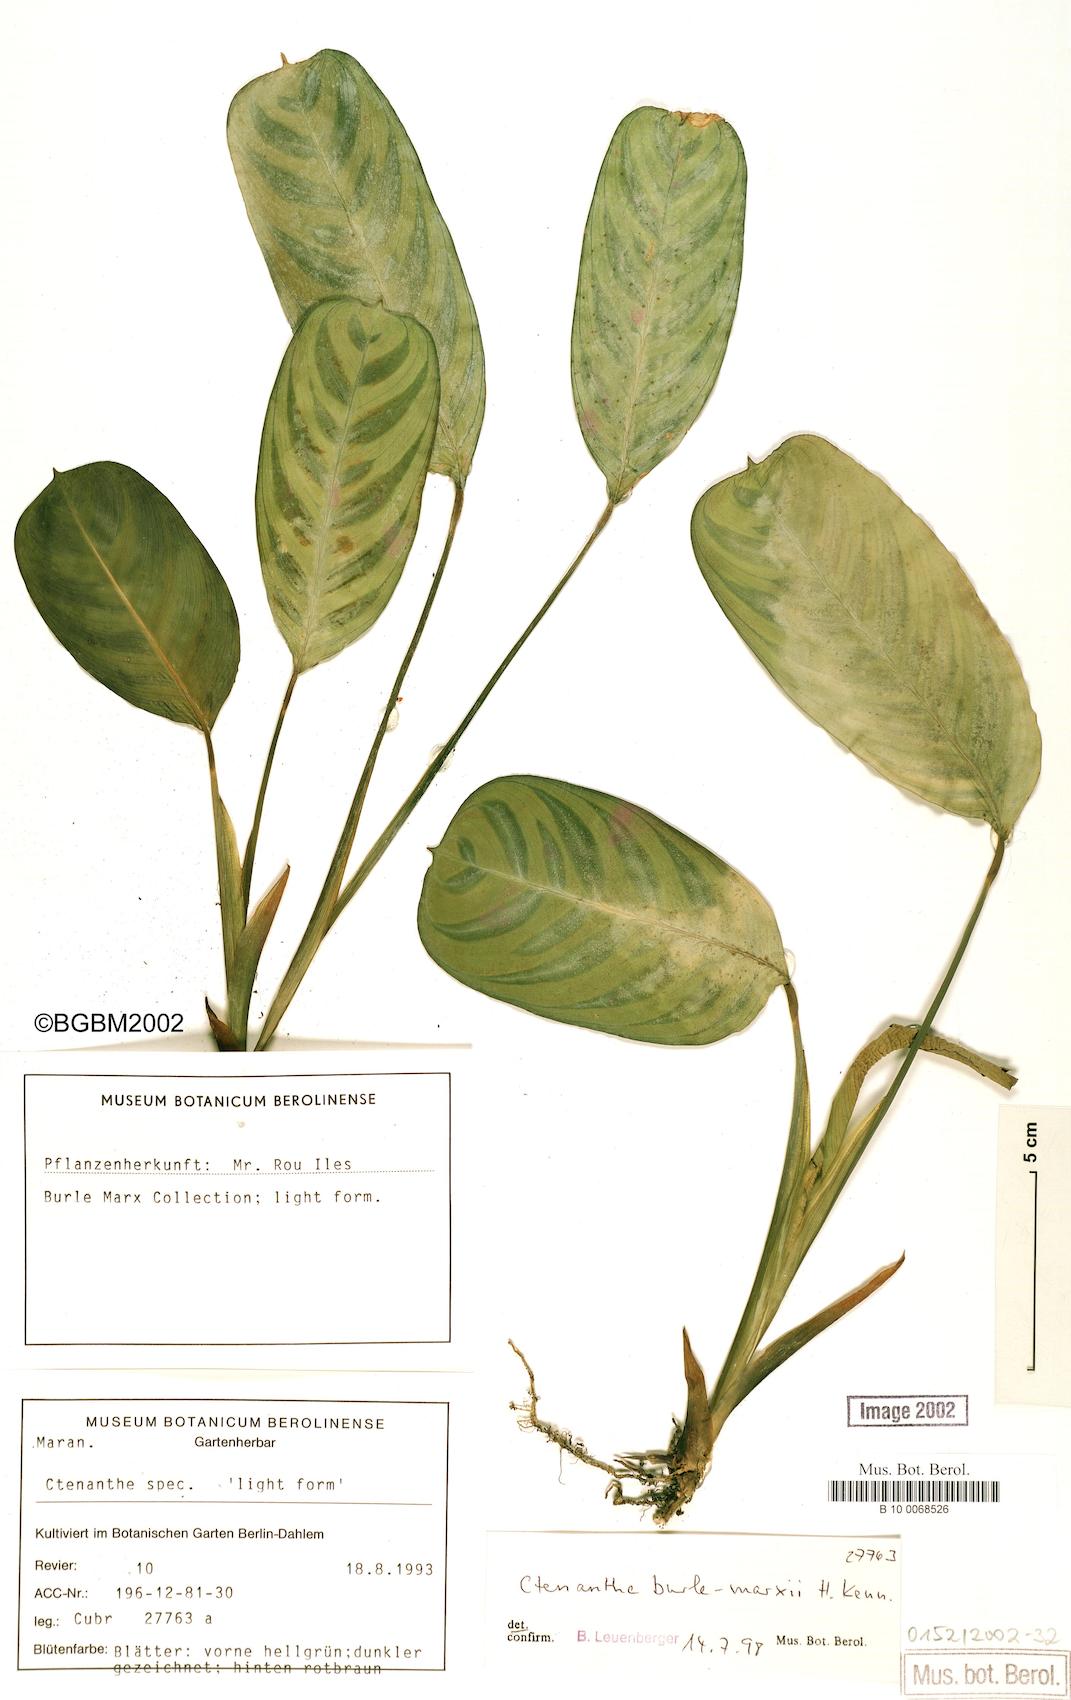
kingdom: Plantae
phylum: Tracheophyta
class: Liliopsida
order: Zingiberales
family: Marantaceae
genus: Ctenanthe
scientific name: Ctenanthe burle-marxii
